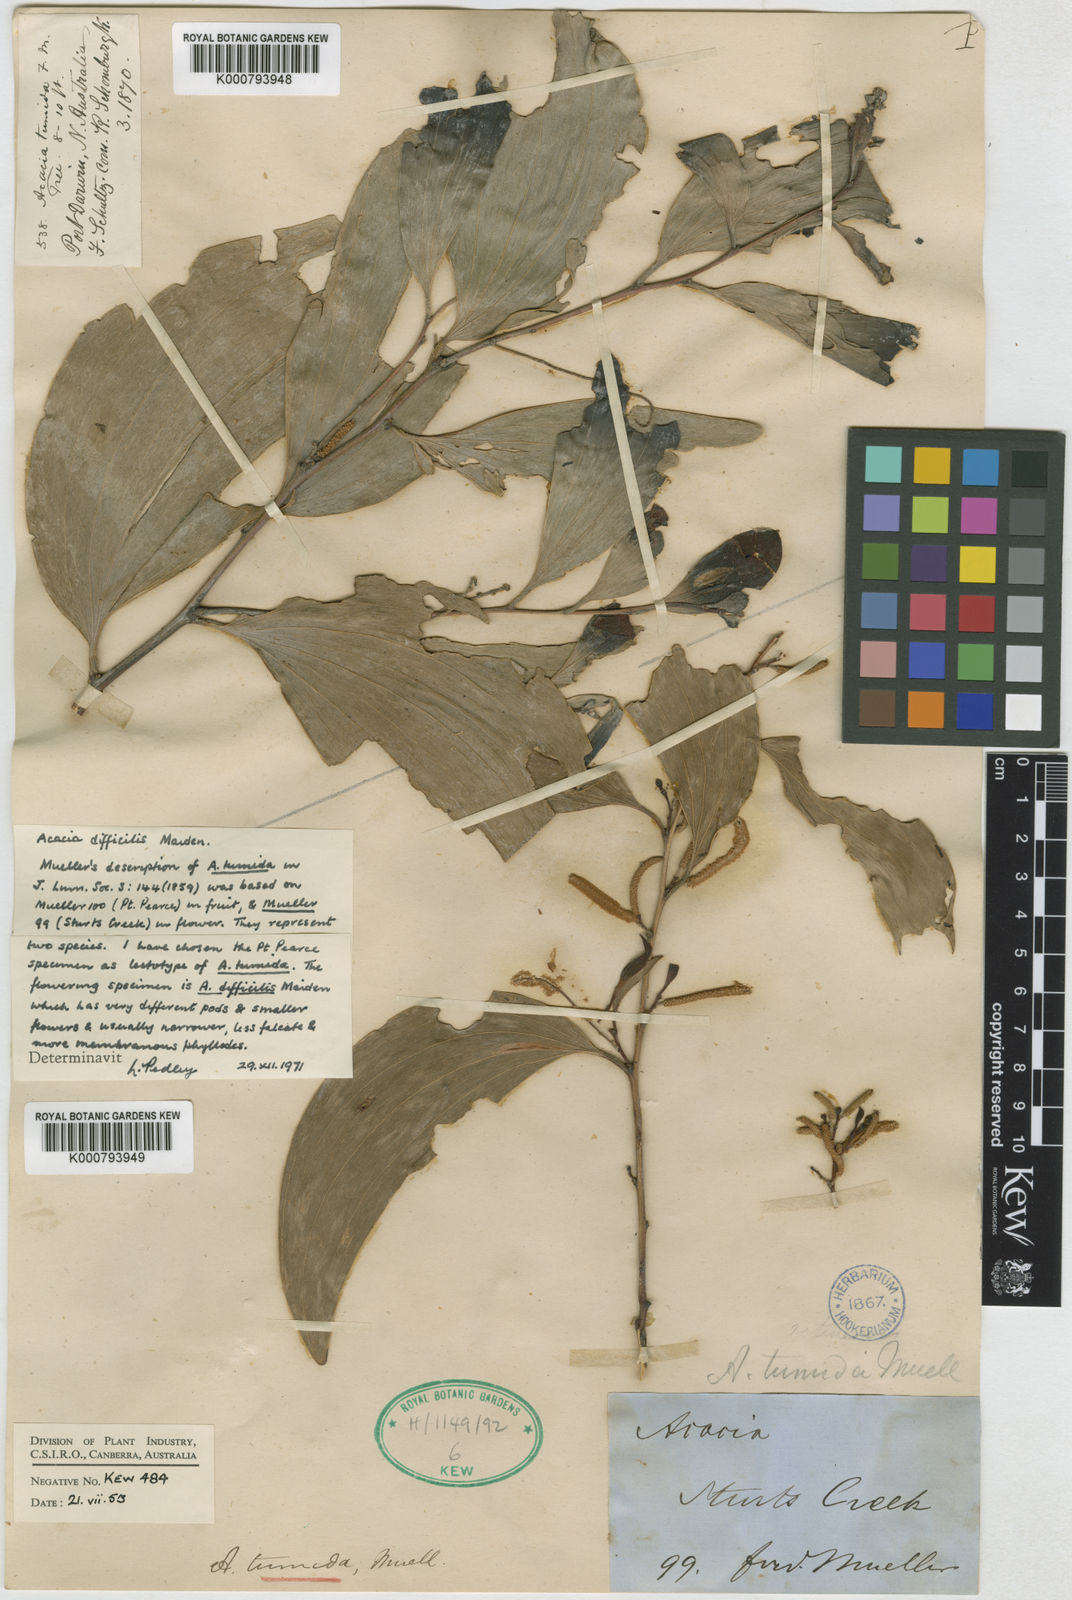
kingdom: Plantae
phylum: Tracheophyta
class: Magnoliopsida
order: Fabales
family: Fabaceae
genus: Acacia
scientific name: Acacia tumida
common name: Pindan wattle
